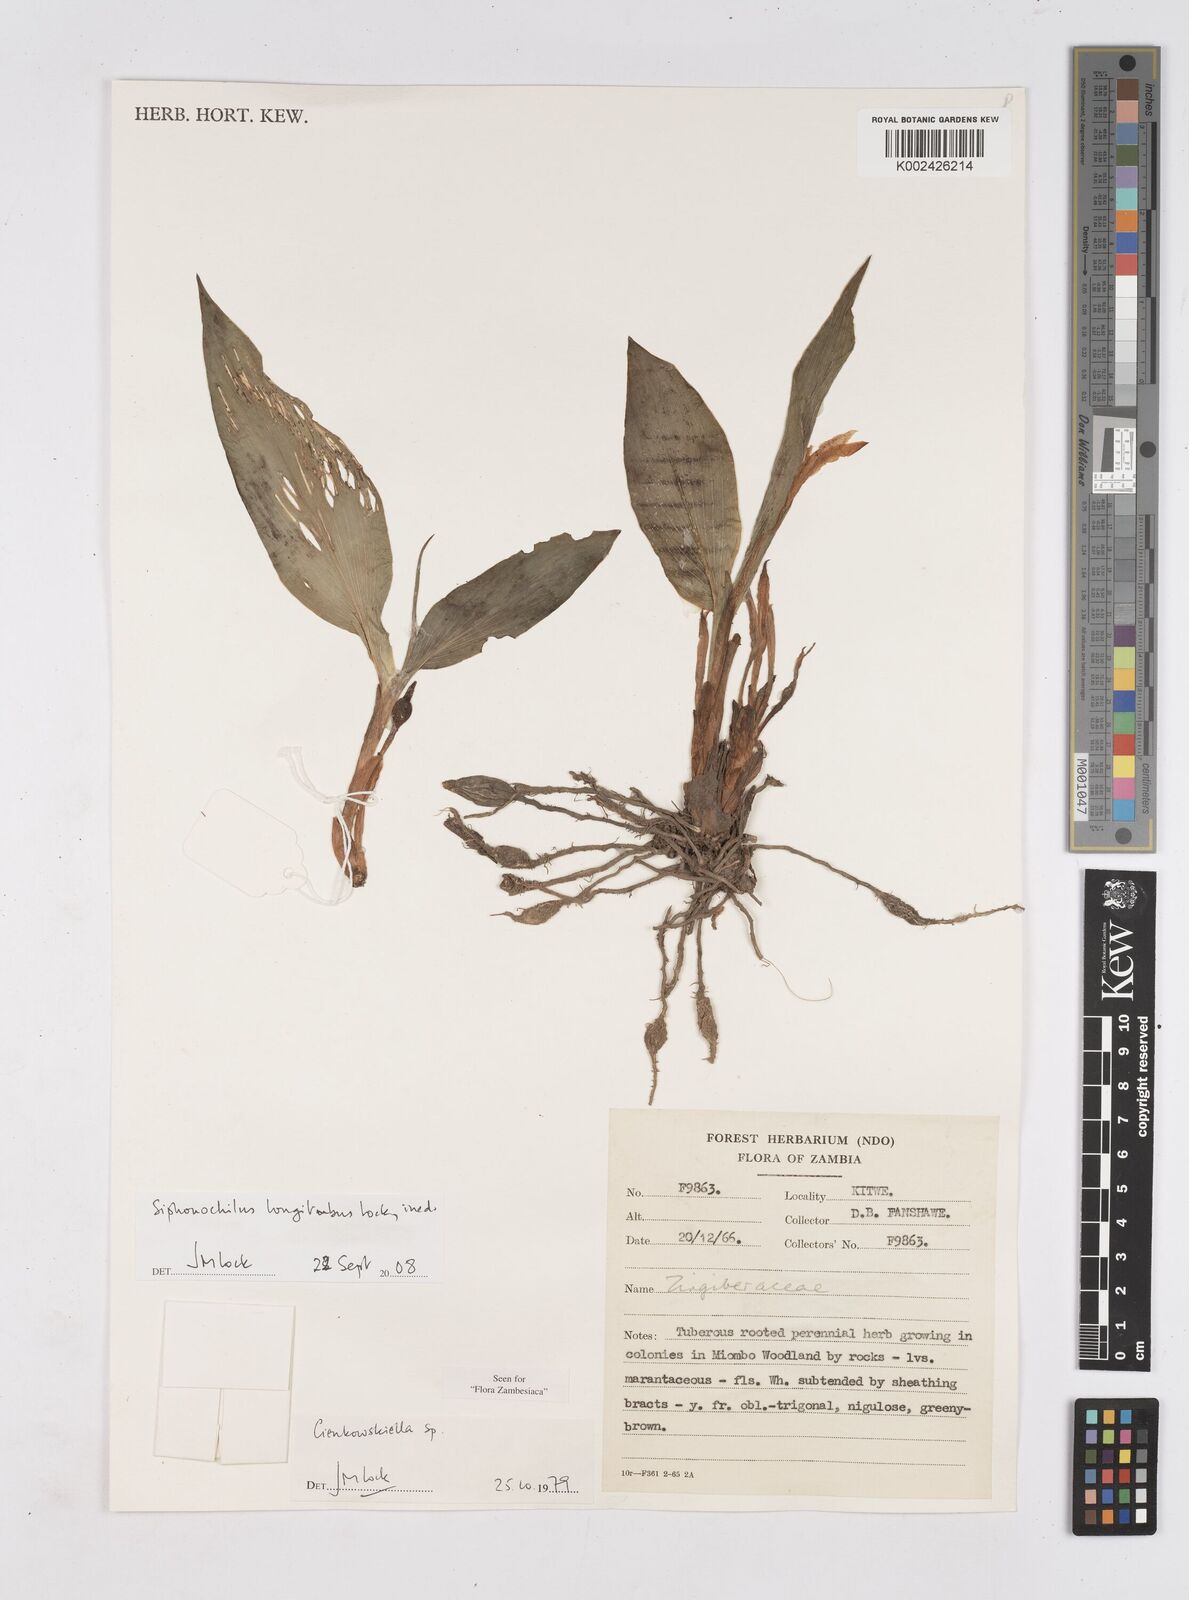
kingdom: Plantae
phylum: Tracheophyta
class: Liliopsida
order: Zingiberales
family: Zingiberaceae
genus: Siphonochilus
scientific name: Siphonochilus longitubus
